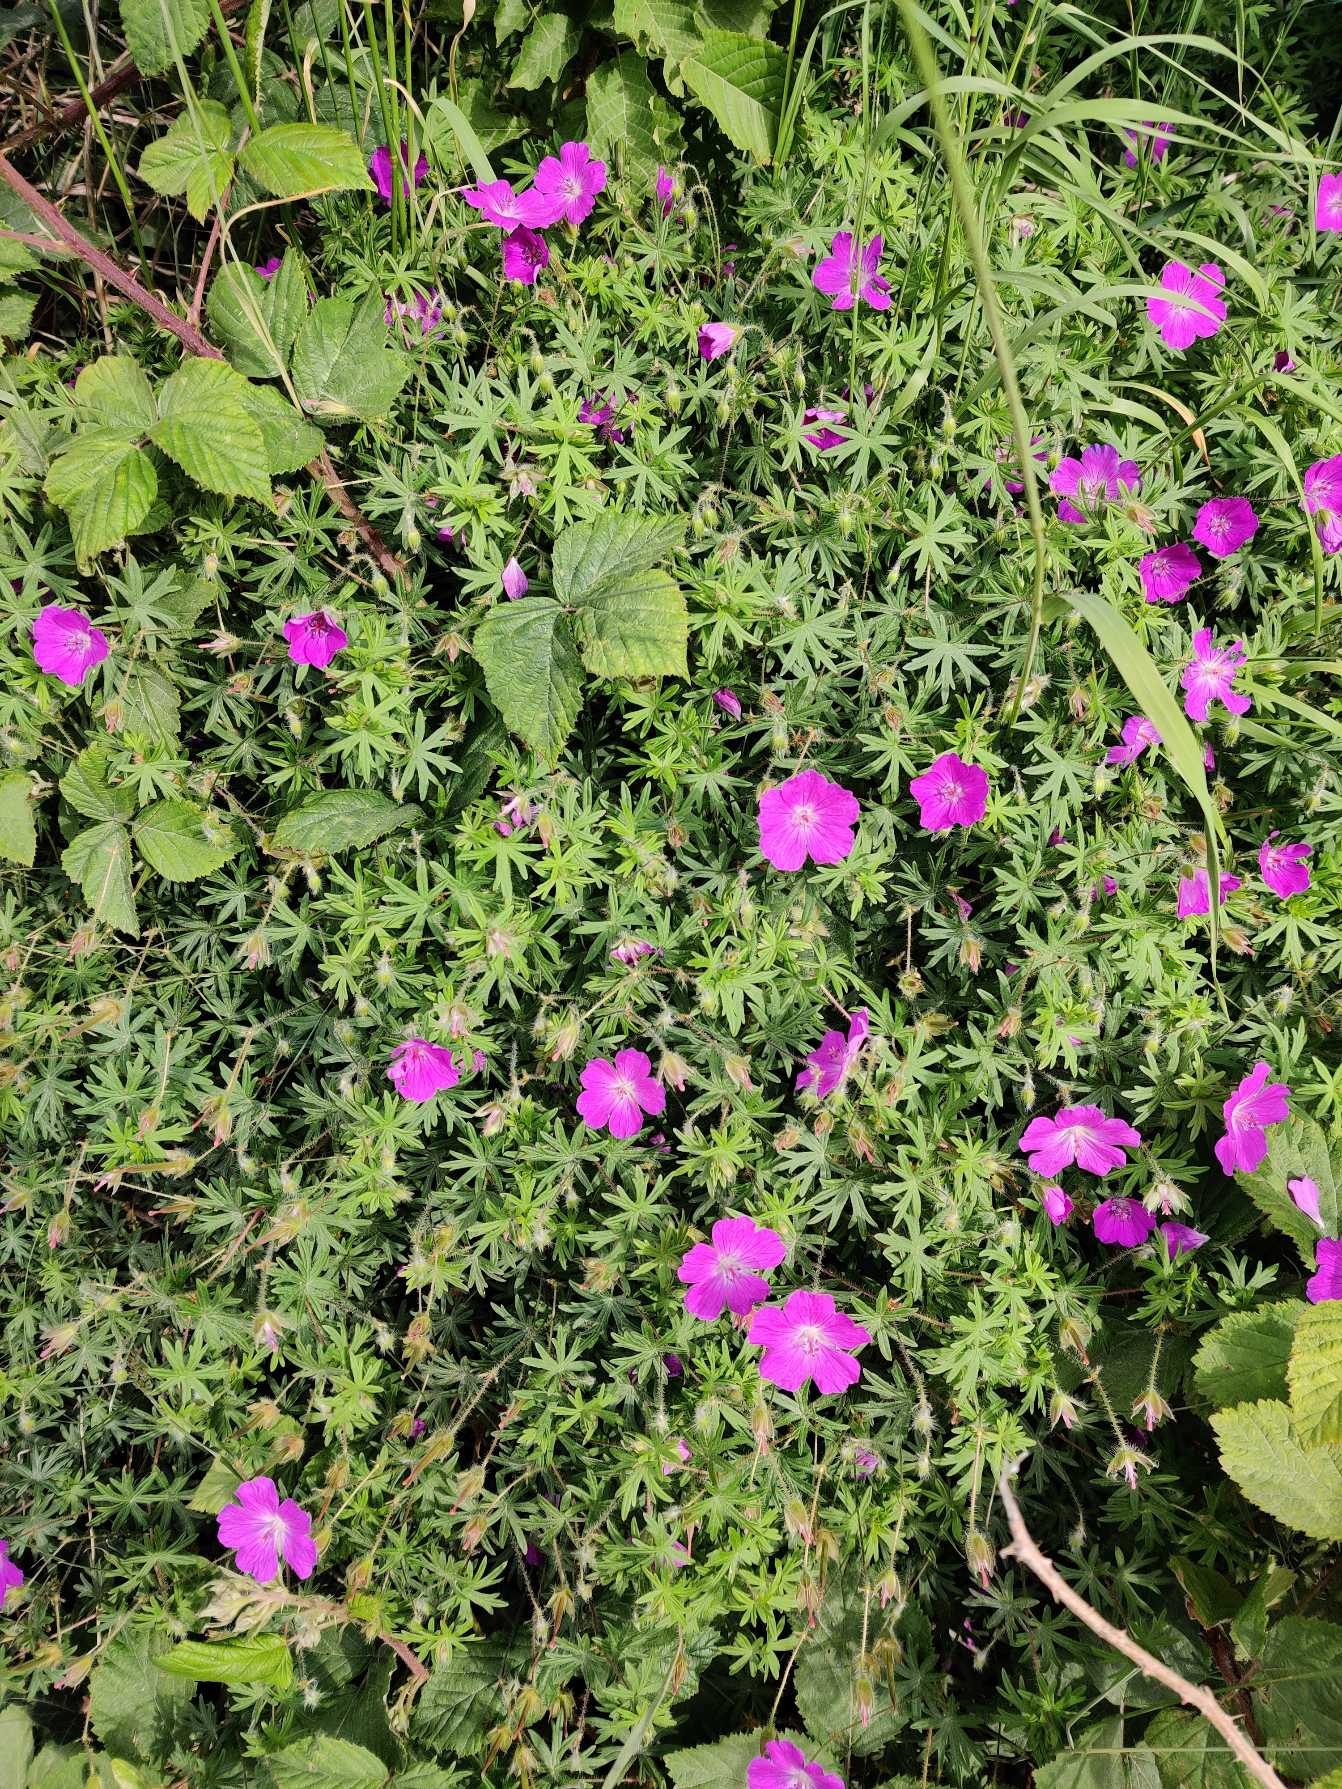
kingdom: Plantae
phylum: Tracheophyta
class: Magnoliopsida
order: Geraniales
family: Geraniaceae
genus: Geranium
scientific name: Geranium sanguineum
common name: Blodrød storkenæb
